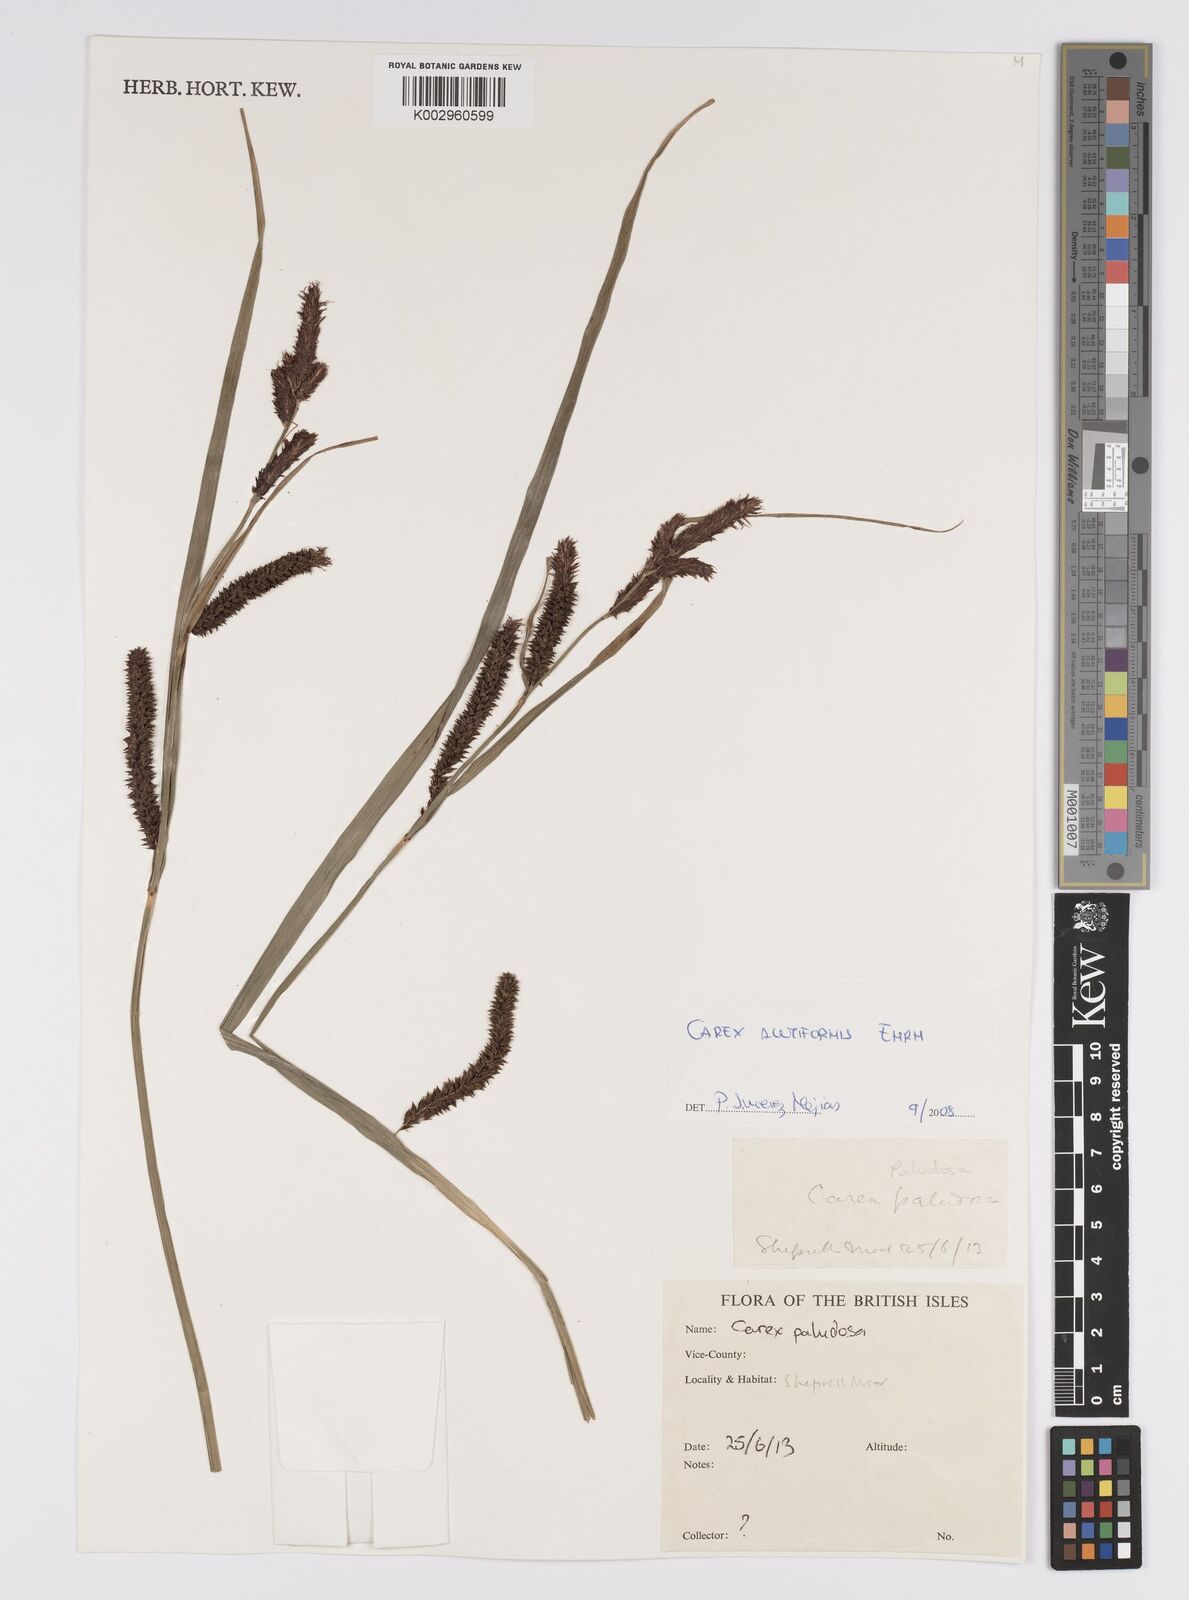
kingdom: Plantae
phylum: Tracheophyta
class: Liliopsida
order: Poales
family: Cyperaceae
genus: Carex
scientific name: Carex acutiformis
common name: Lesser pond-sedge
